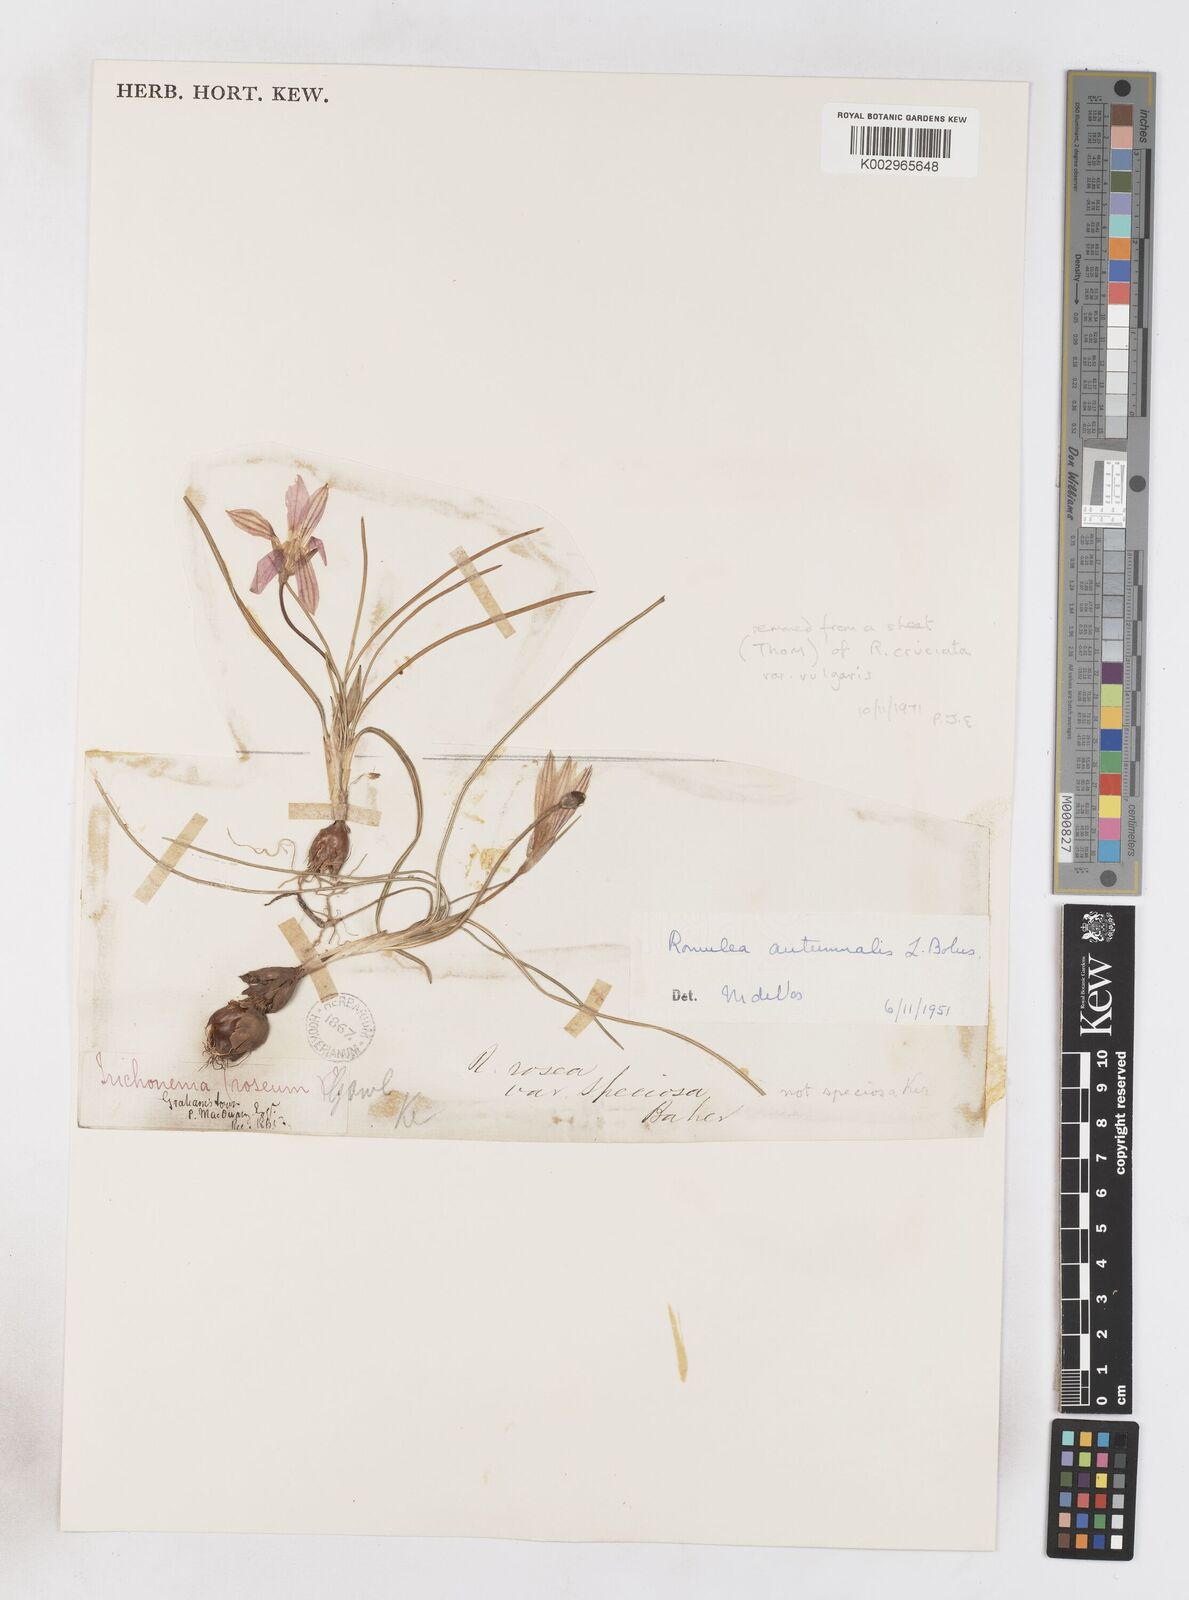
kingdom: Plantae
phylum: Tracheophyta
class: Liliopsida
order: Asparagales
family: Iridaceae
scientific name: Iridaceae
